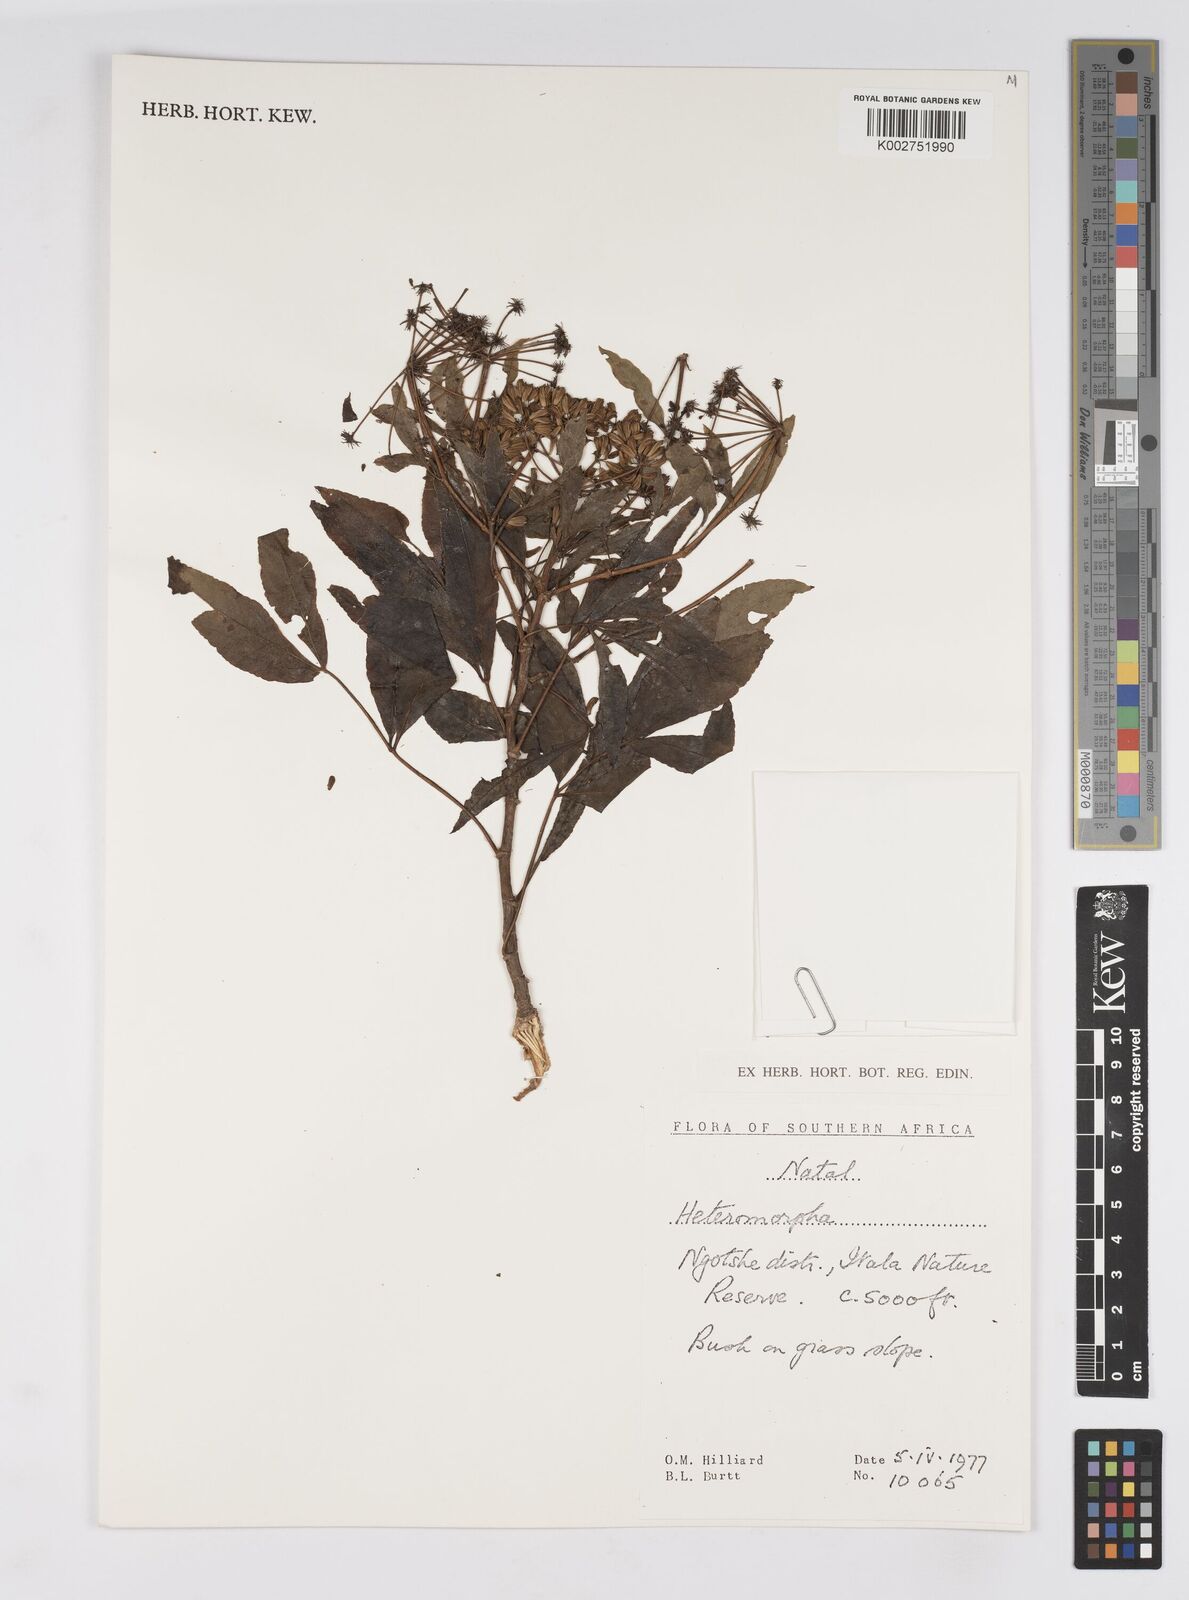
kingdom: Plantae
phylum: Tracheophyta
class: Magnoliopsida
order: Apiales
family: Apiaceae
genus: Heteromorpha
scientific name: Heteromorpha
